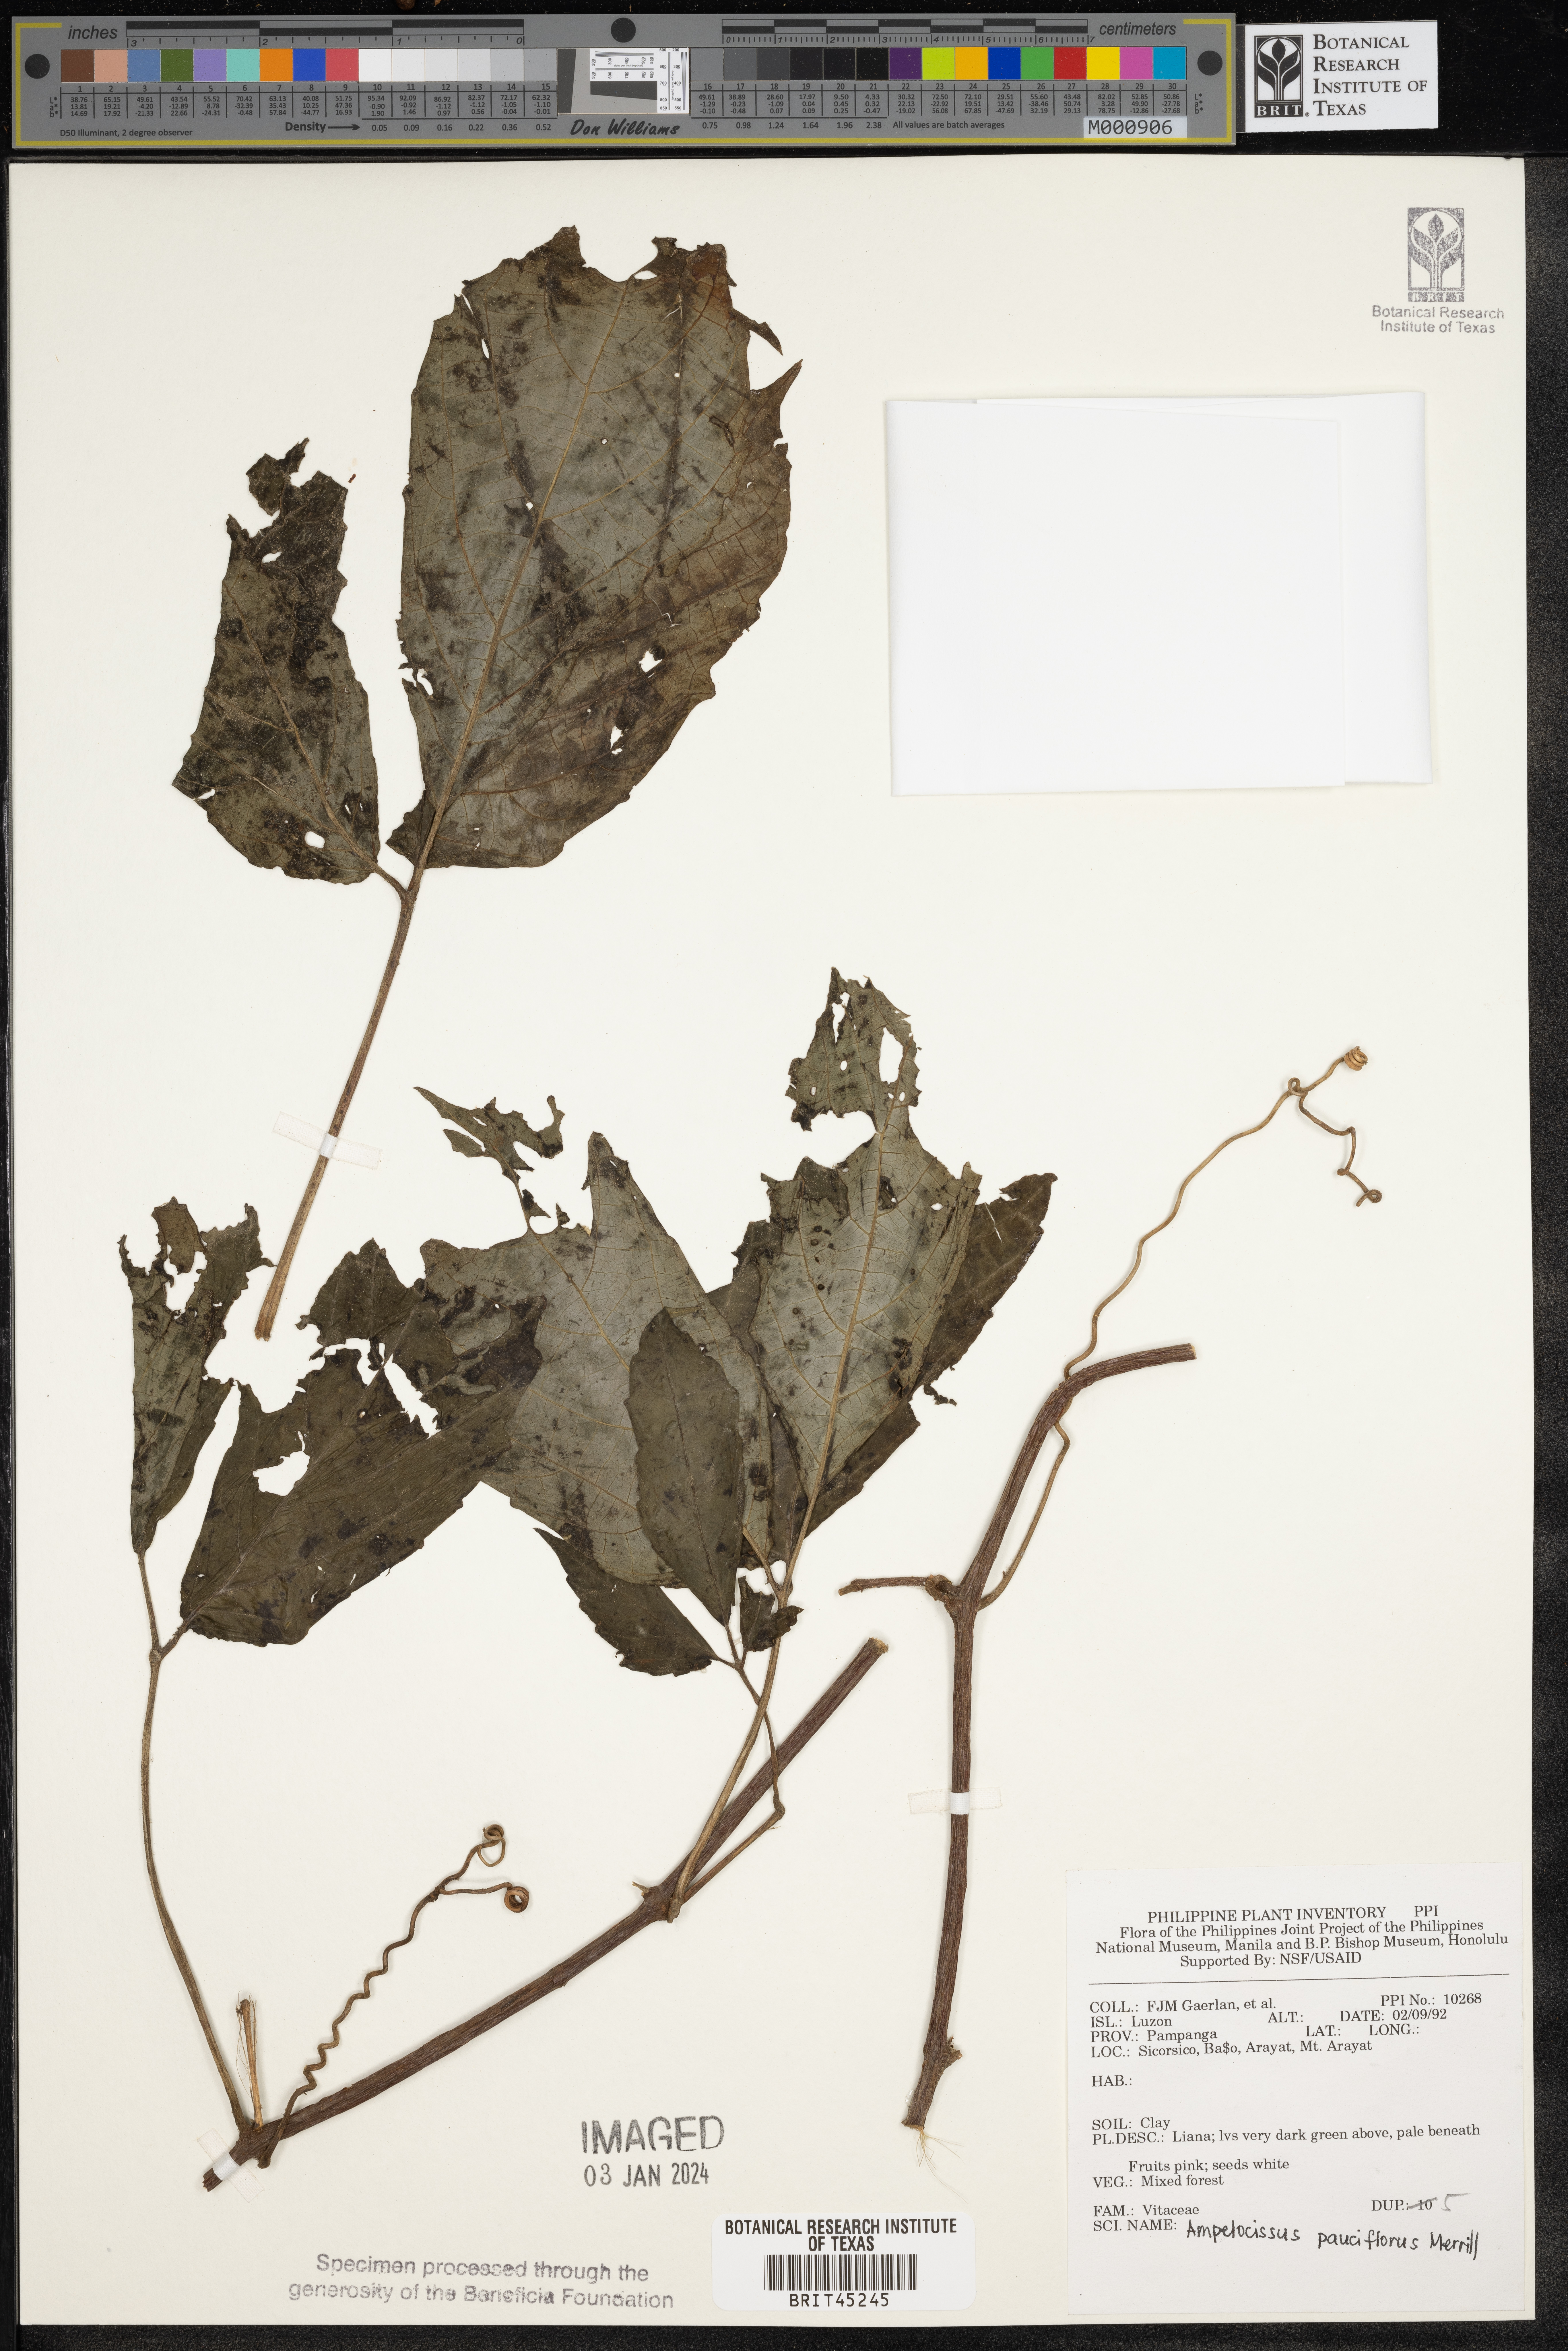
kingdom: Plantae
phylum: Tracheophyta
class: Magnoliopsida
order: Vitales
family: Vitaceae
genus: Ampelocissus
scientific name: Ampelocissus pauciflora
